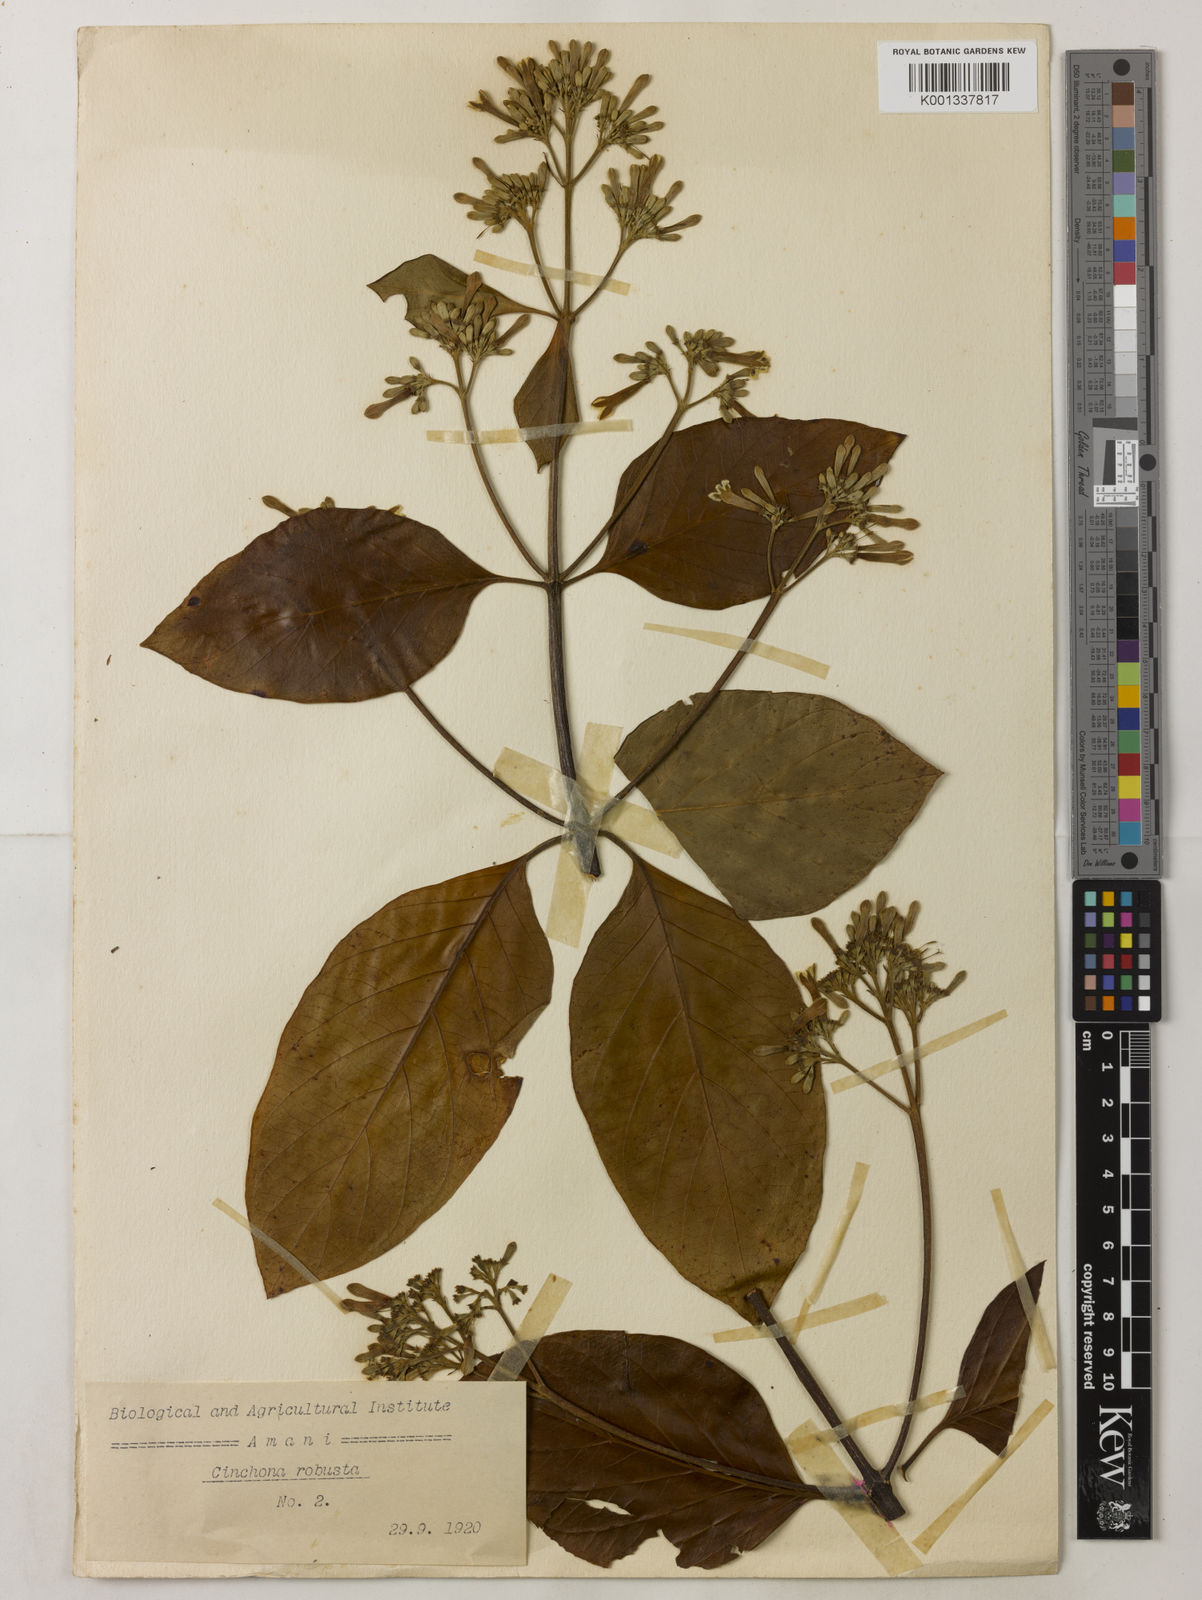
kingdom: Plantae
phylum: Tracheophyta
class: Magnoliopsida
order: Gentianales
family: Rubiaceae
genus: Cinchona
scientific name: Cinchona officinalis
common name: Lojabark
